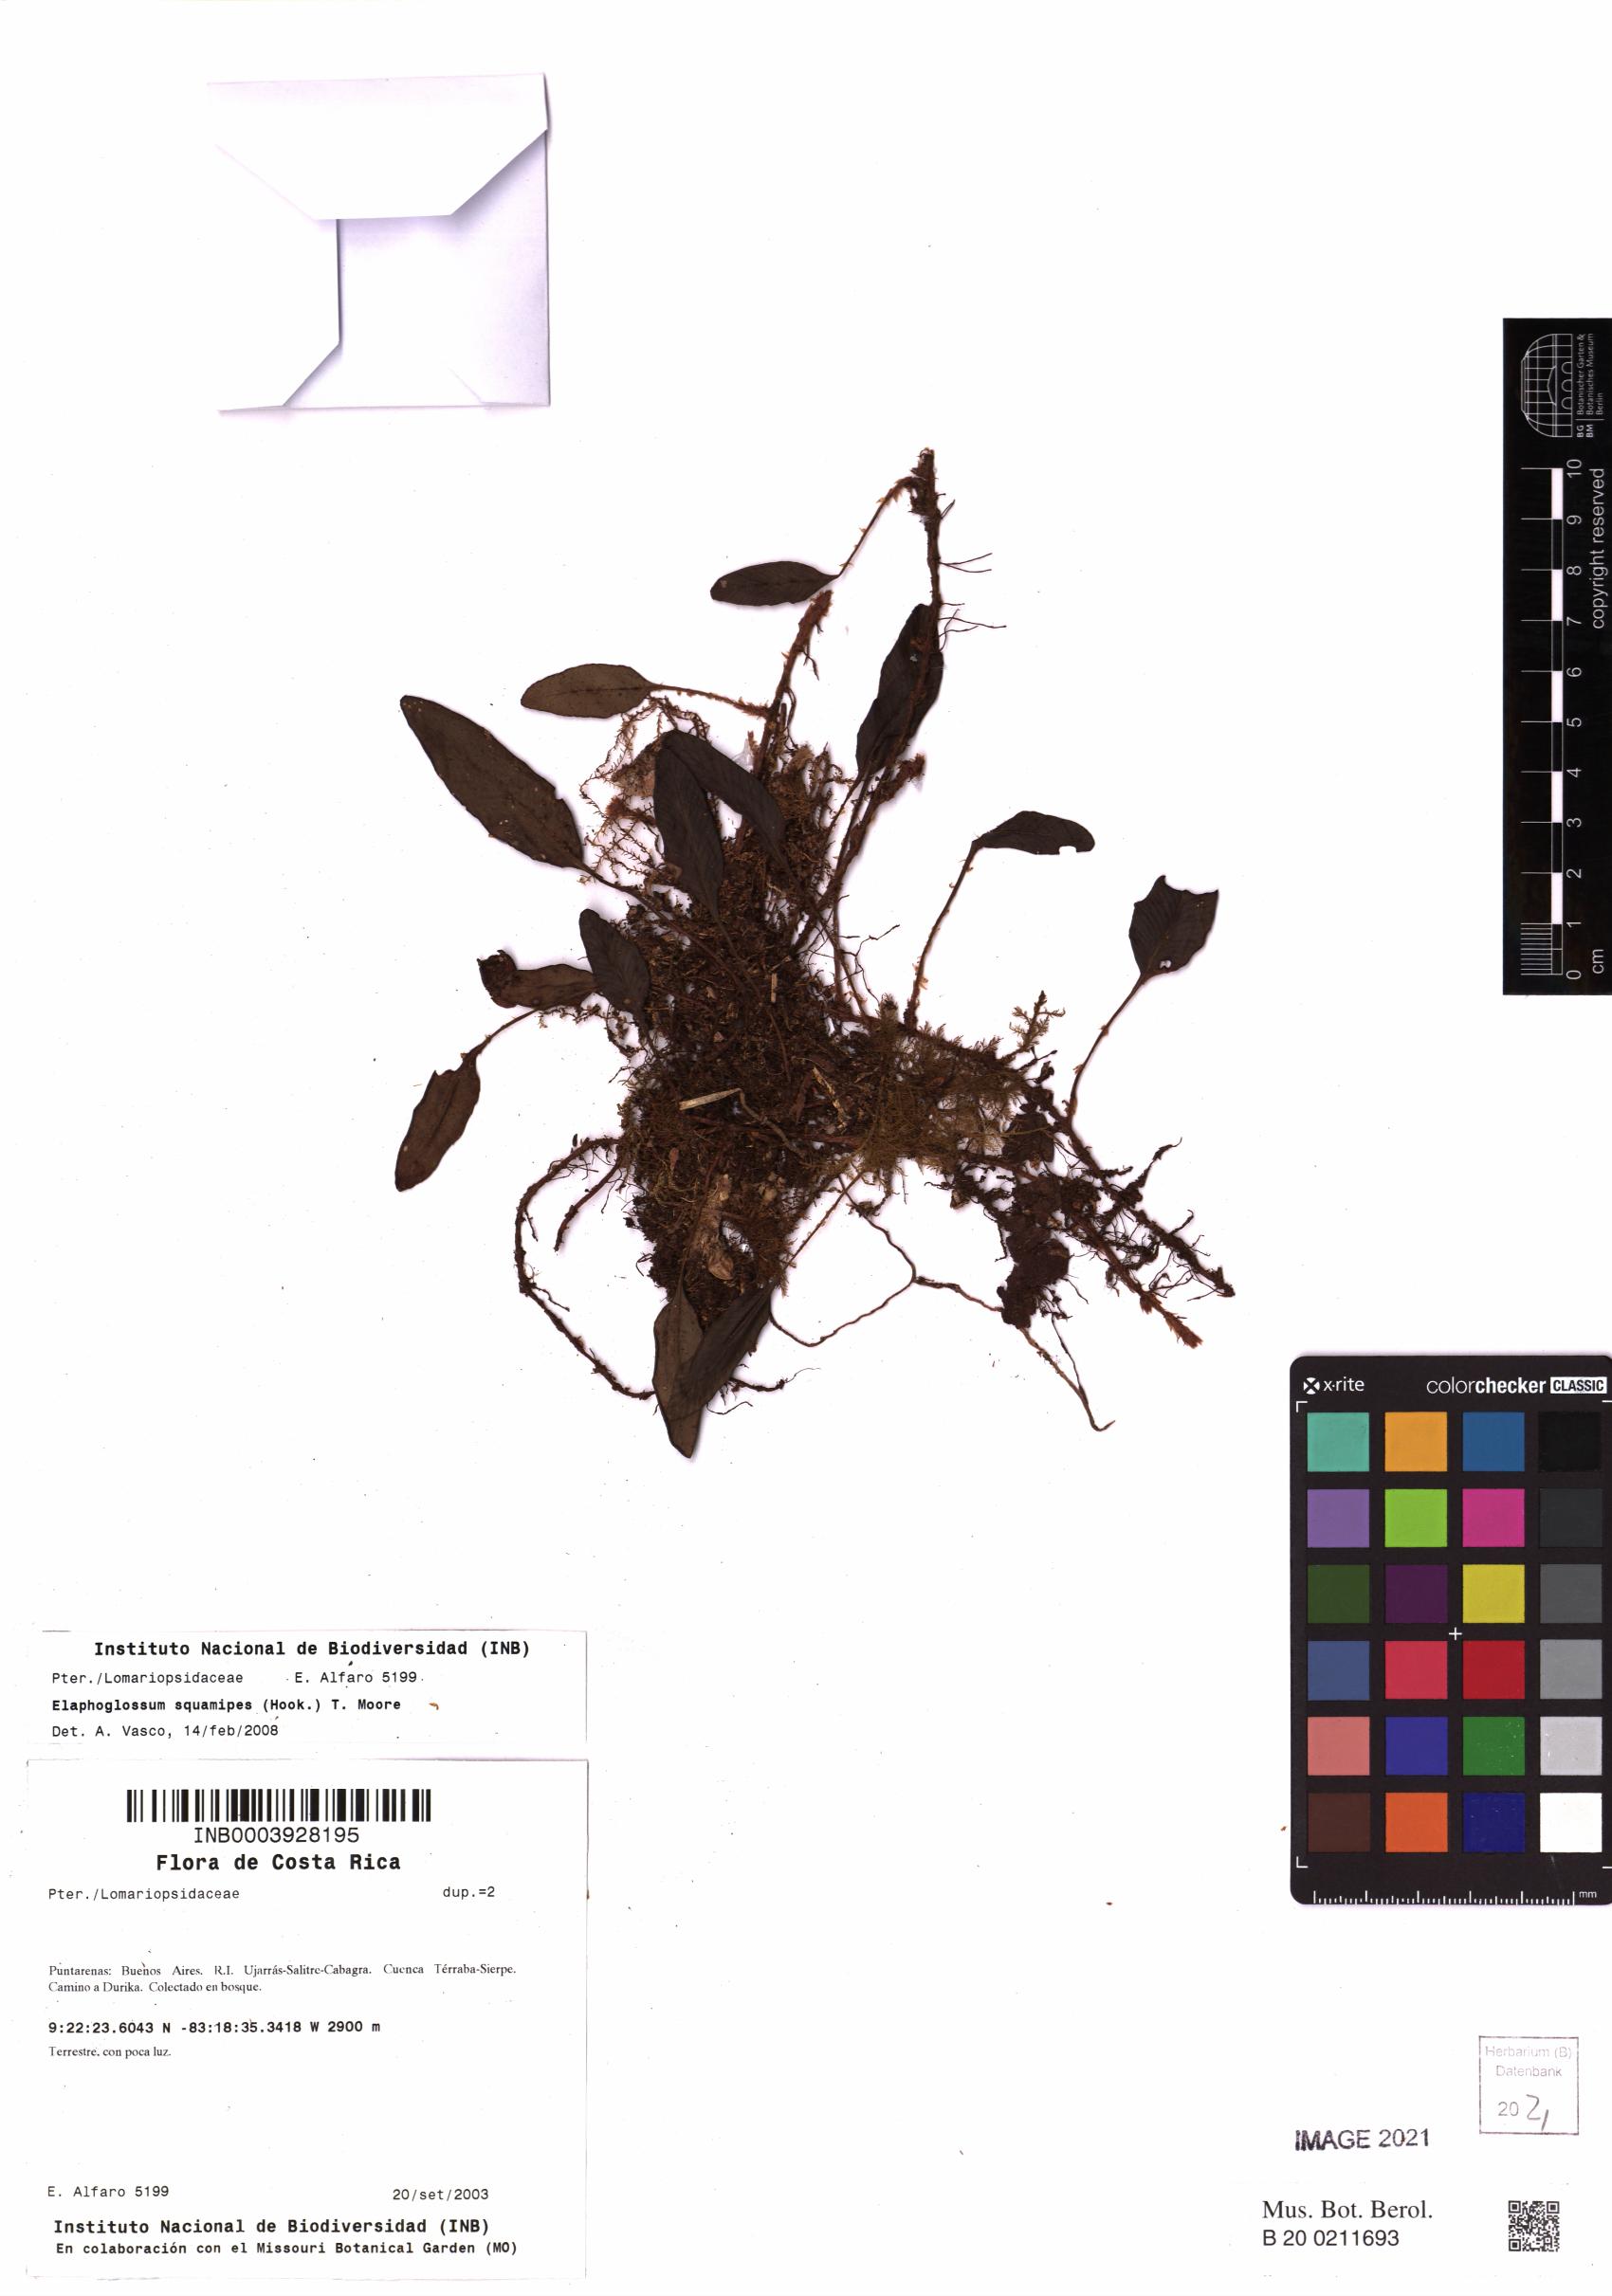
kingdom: Plantae
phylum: Tracheophyta
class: Polypodiopsida
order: Polypodiales
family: Dryopteridaceae
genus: Elaphoglossum
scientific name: Elaphoglossum squamipes
